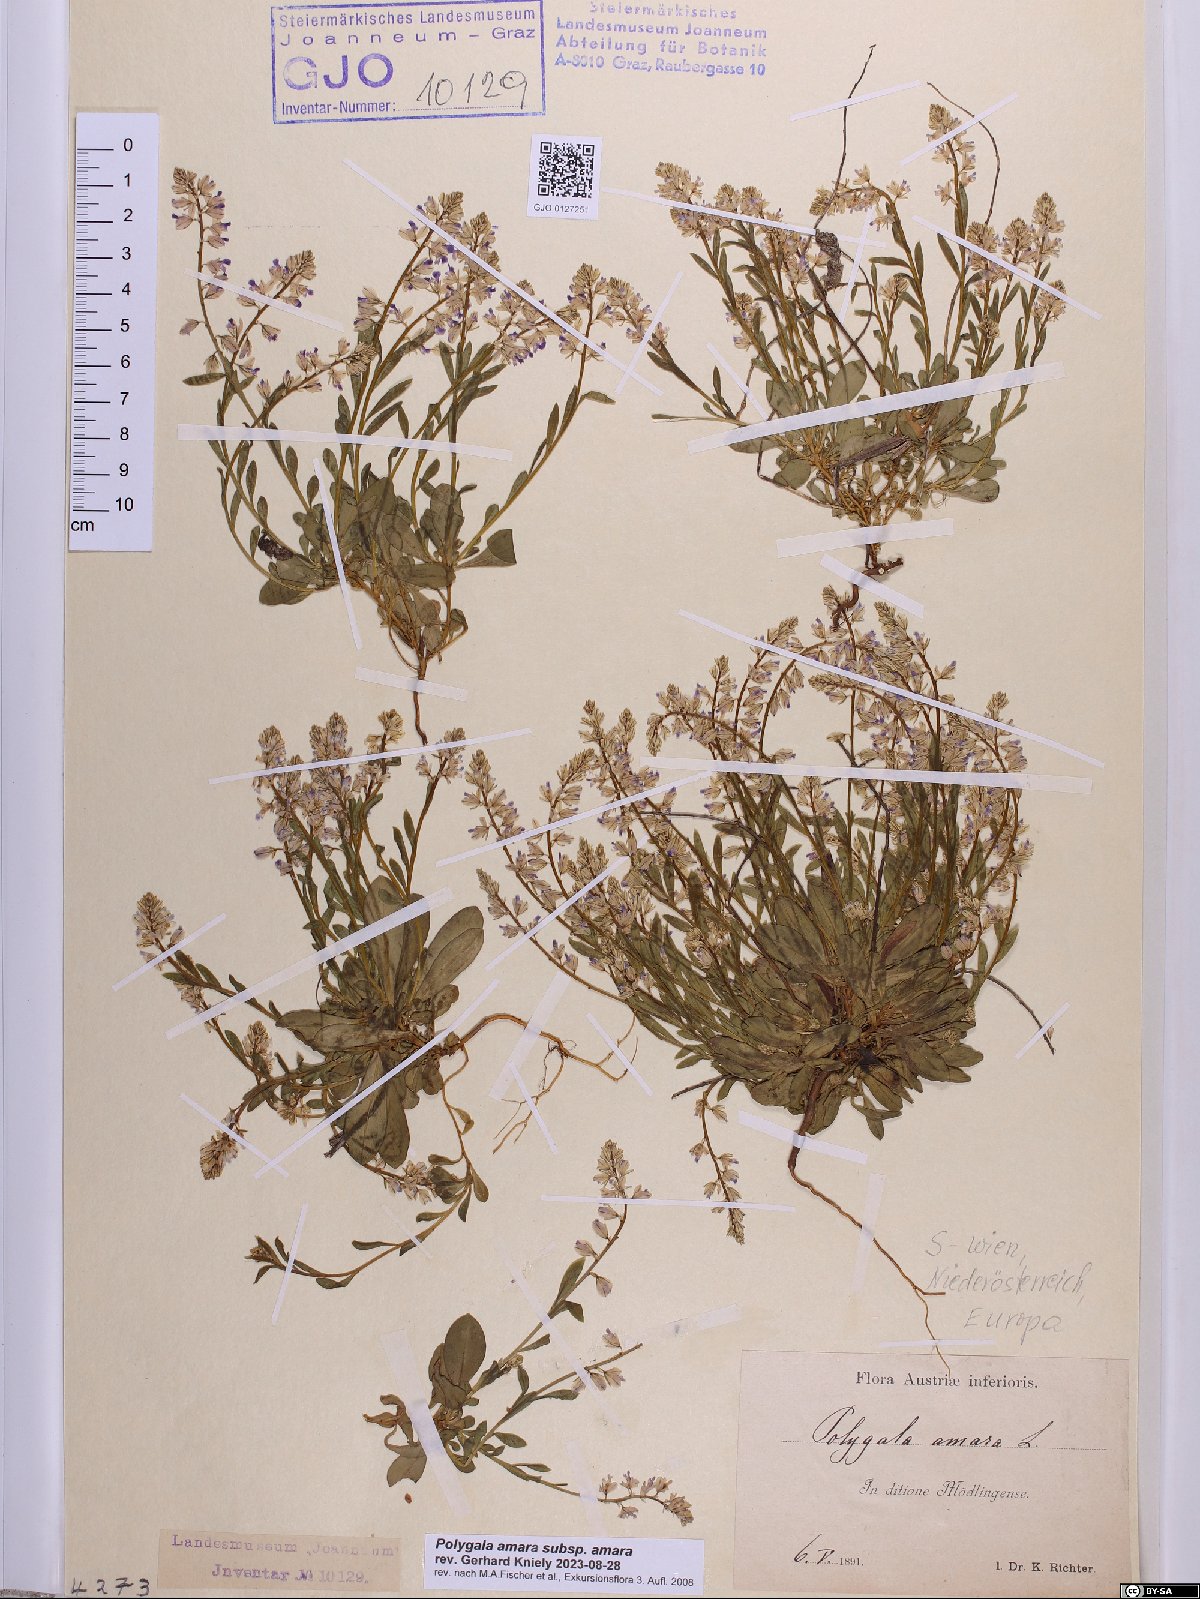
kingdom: Plantae
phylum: Tracheophyta
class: Magnoliopsida
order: Fabales
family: Polygalaceae
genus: Polygala
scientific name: Polygala amara
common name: Milkwort
